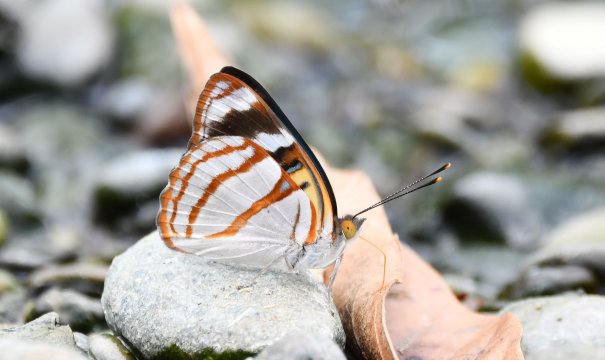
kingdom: Animalia
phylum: Arthropoda
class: Insecta
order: Lepidoptera
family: Nymphalidae
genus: Dynamine
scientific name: Dynamine sara
